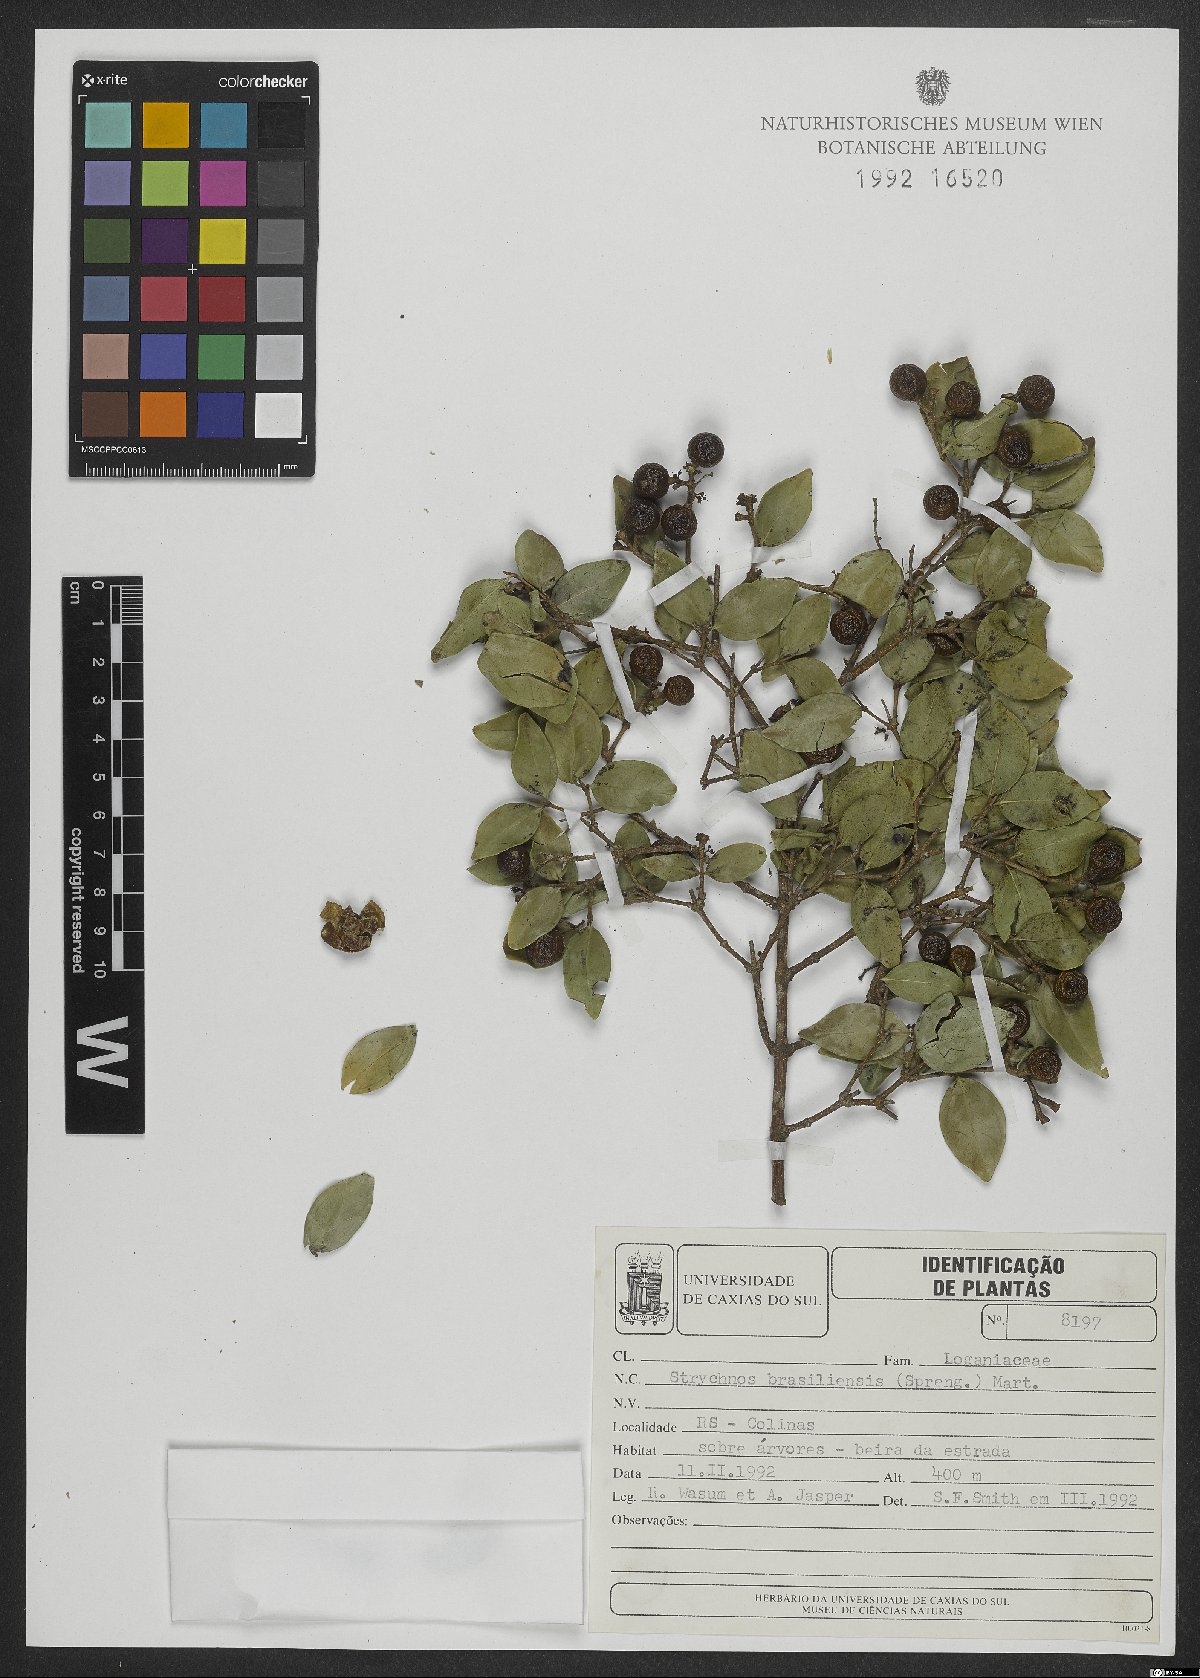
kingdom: Plantae
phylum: Tracheophyta
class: Magnoliopsida
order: Gentianales
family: Loganiaceae
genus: Strychnos
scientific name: Strychnos brasiliensis
